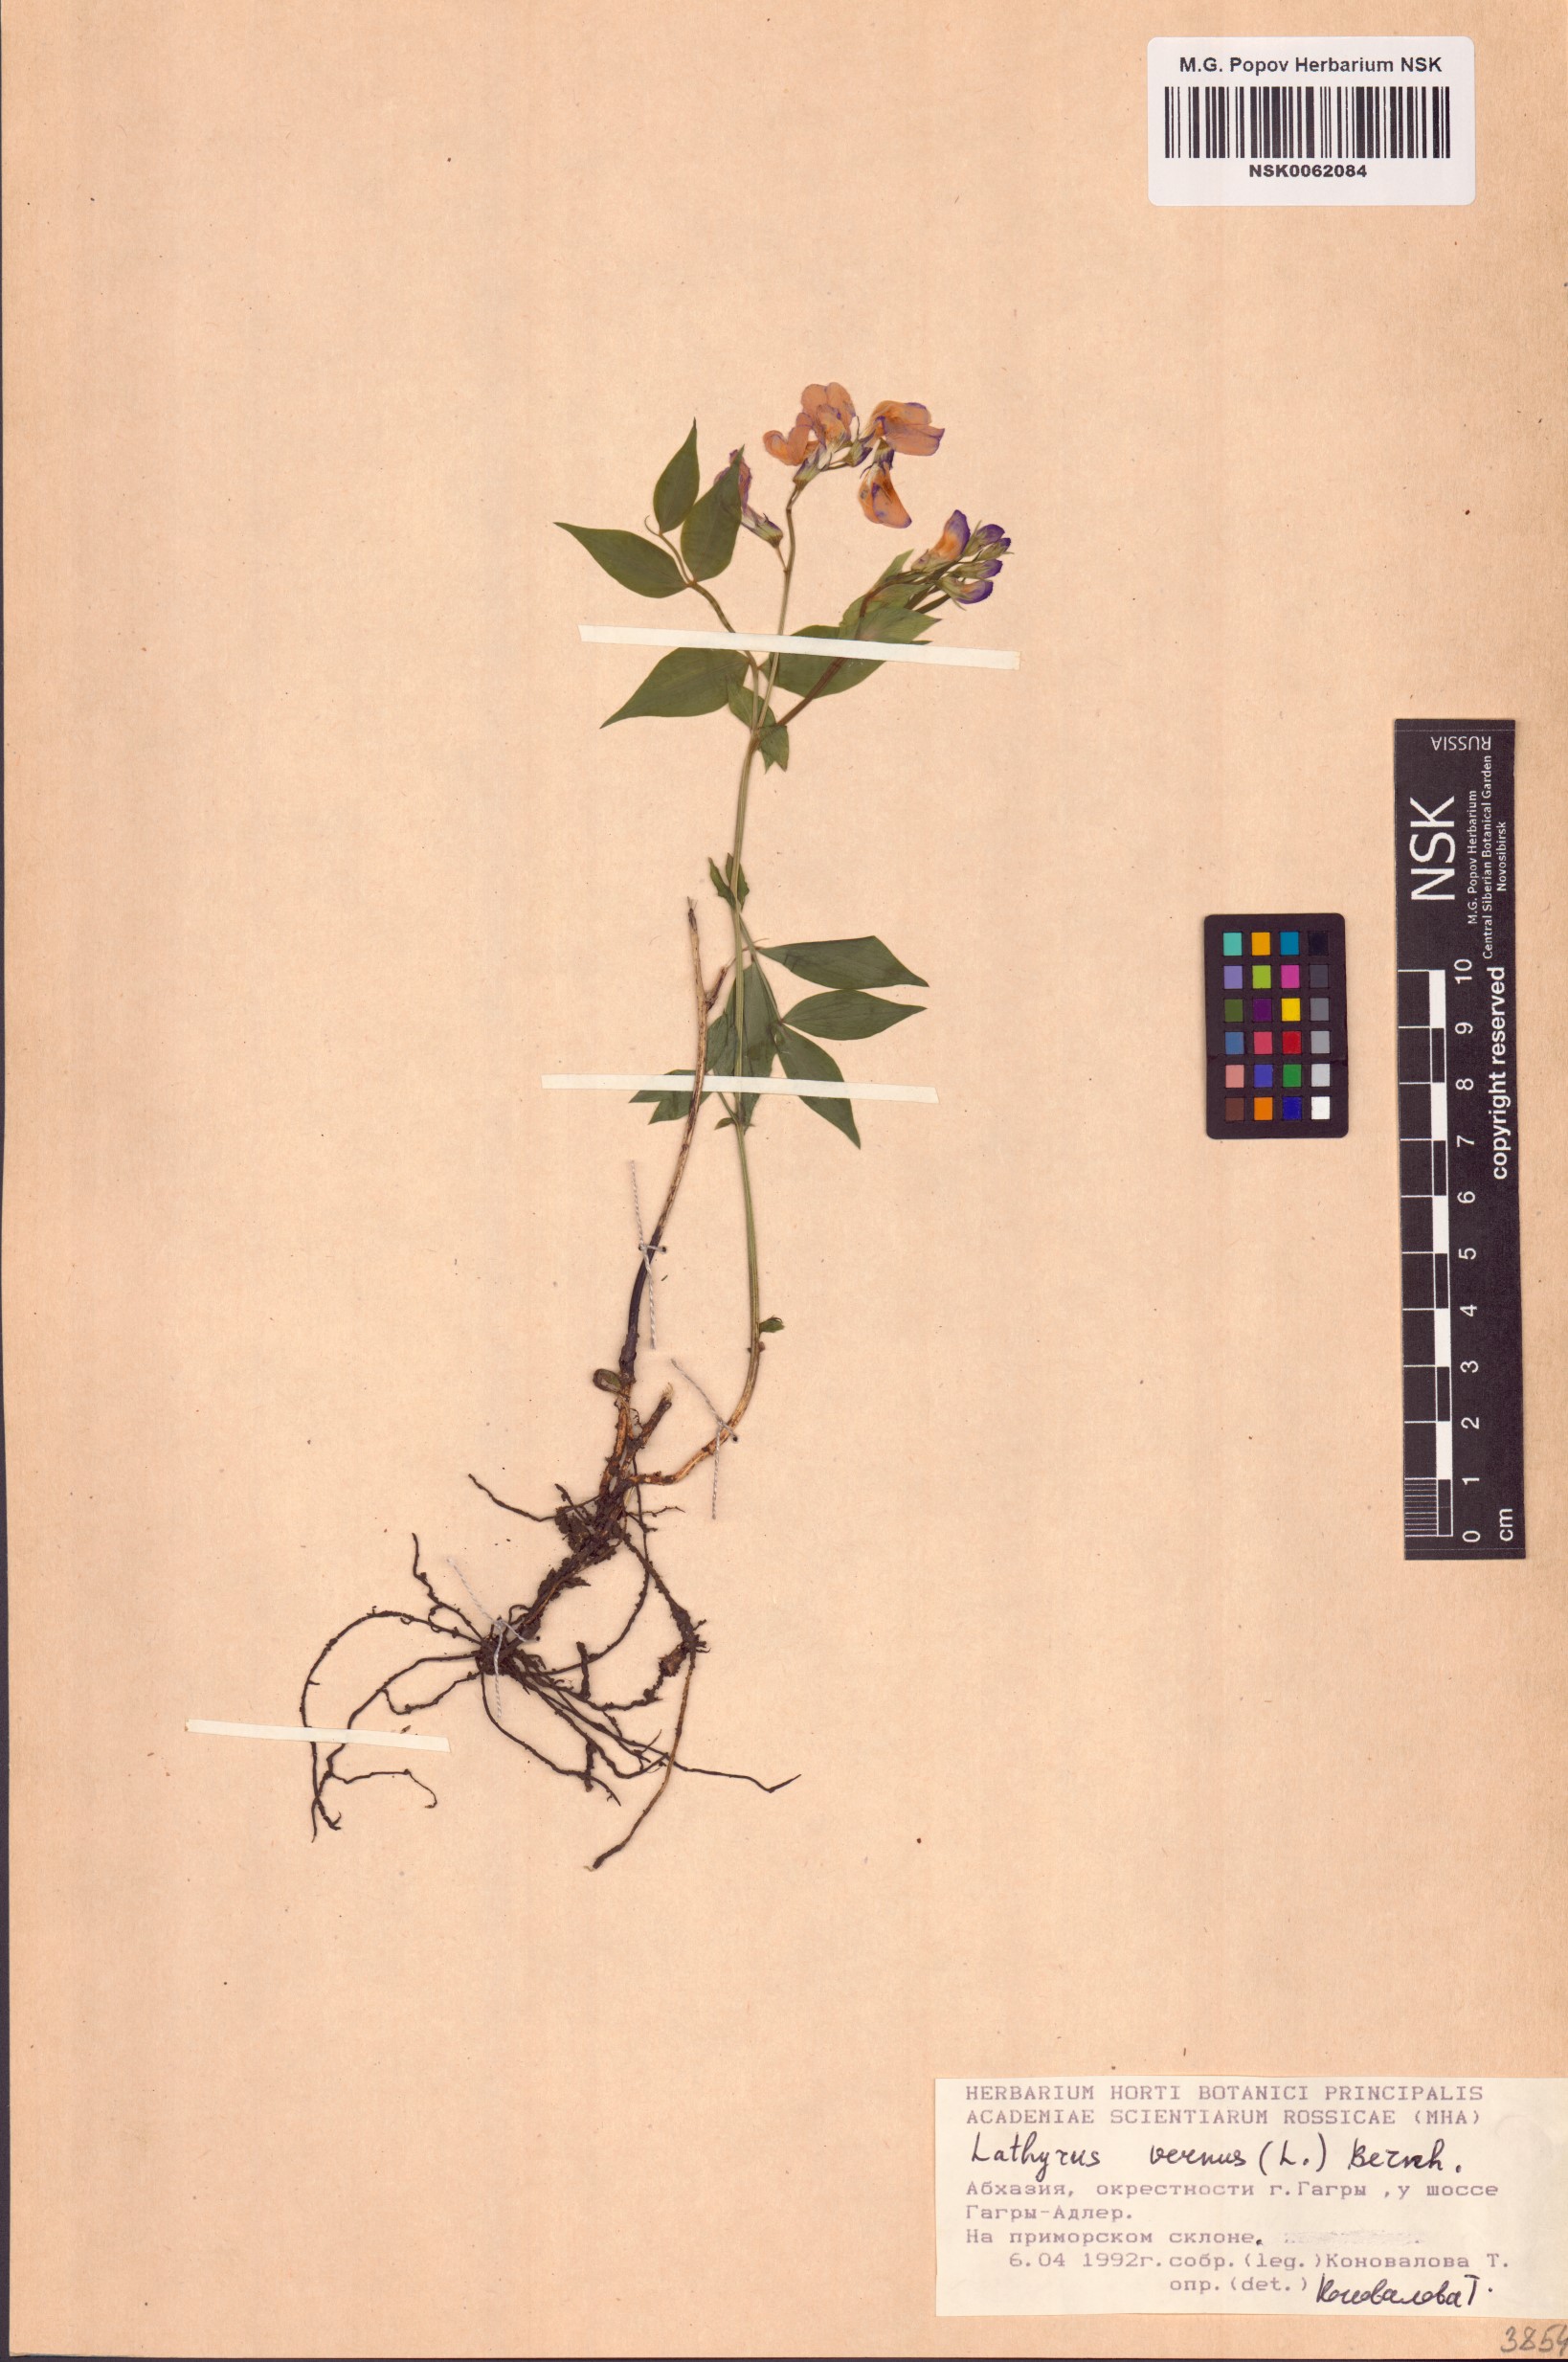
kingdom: Plantae
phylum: Tracheophyta
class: Magnoliopsida
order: Fabales
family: Fabaceae
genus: Lathyrus
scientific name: Lathyrus vernus
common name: Spring pea
